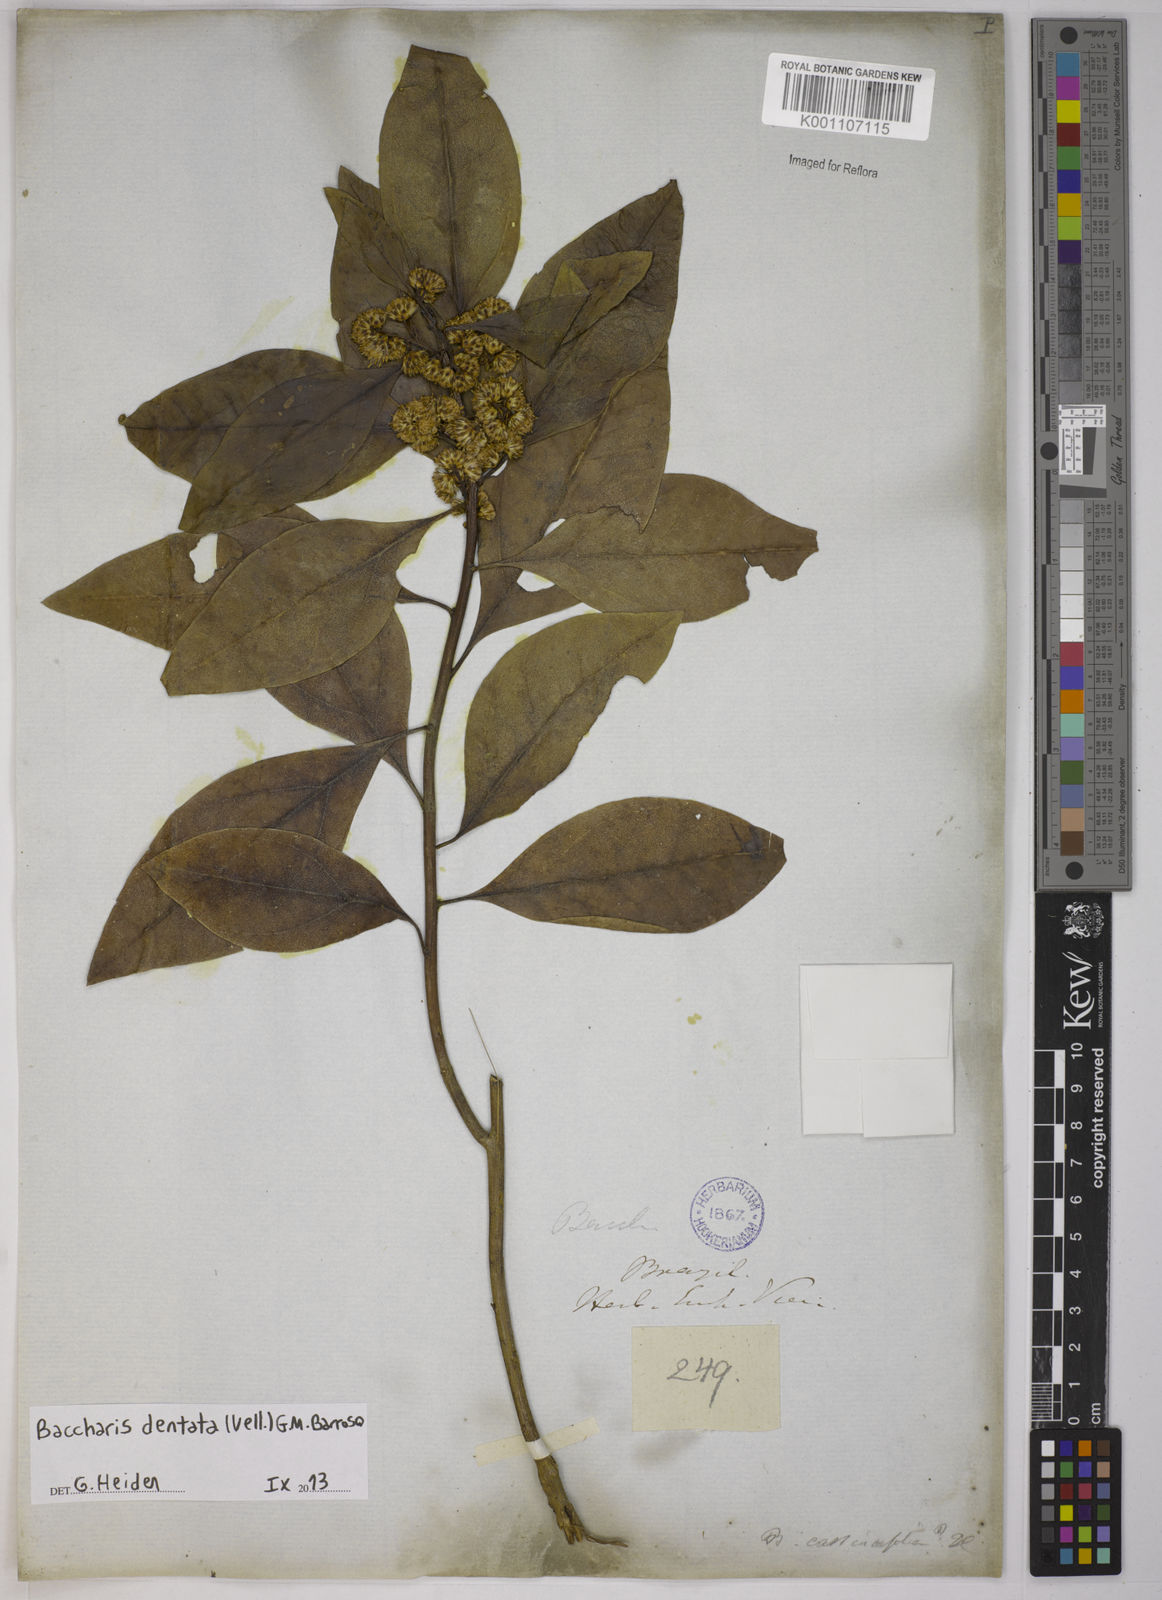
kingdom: Plantae
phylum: Tracheophyta
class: Magnoliopsida
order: Asterales
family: Asteraceae
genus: Baccharis
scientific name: Baccharis dentata
